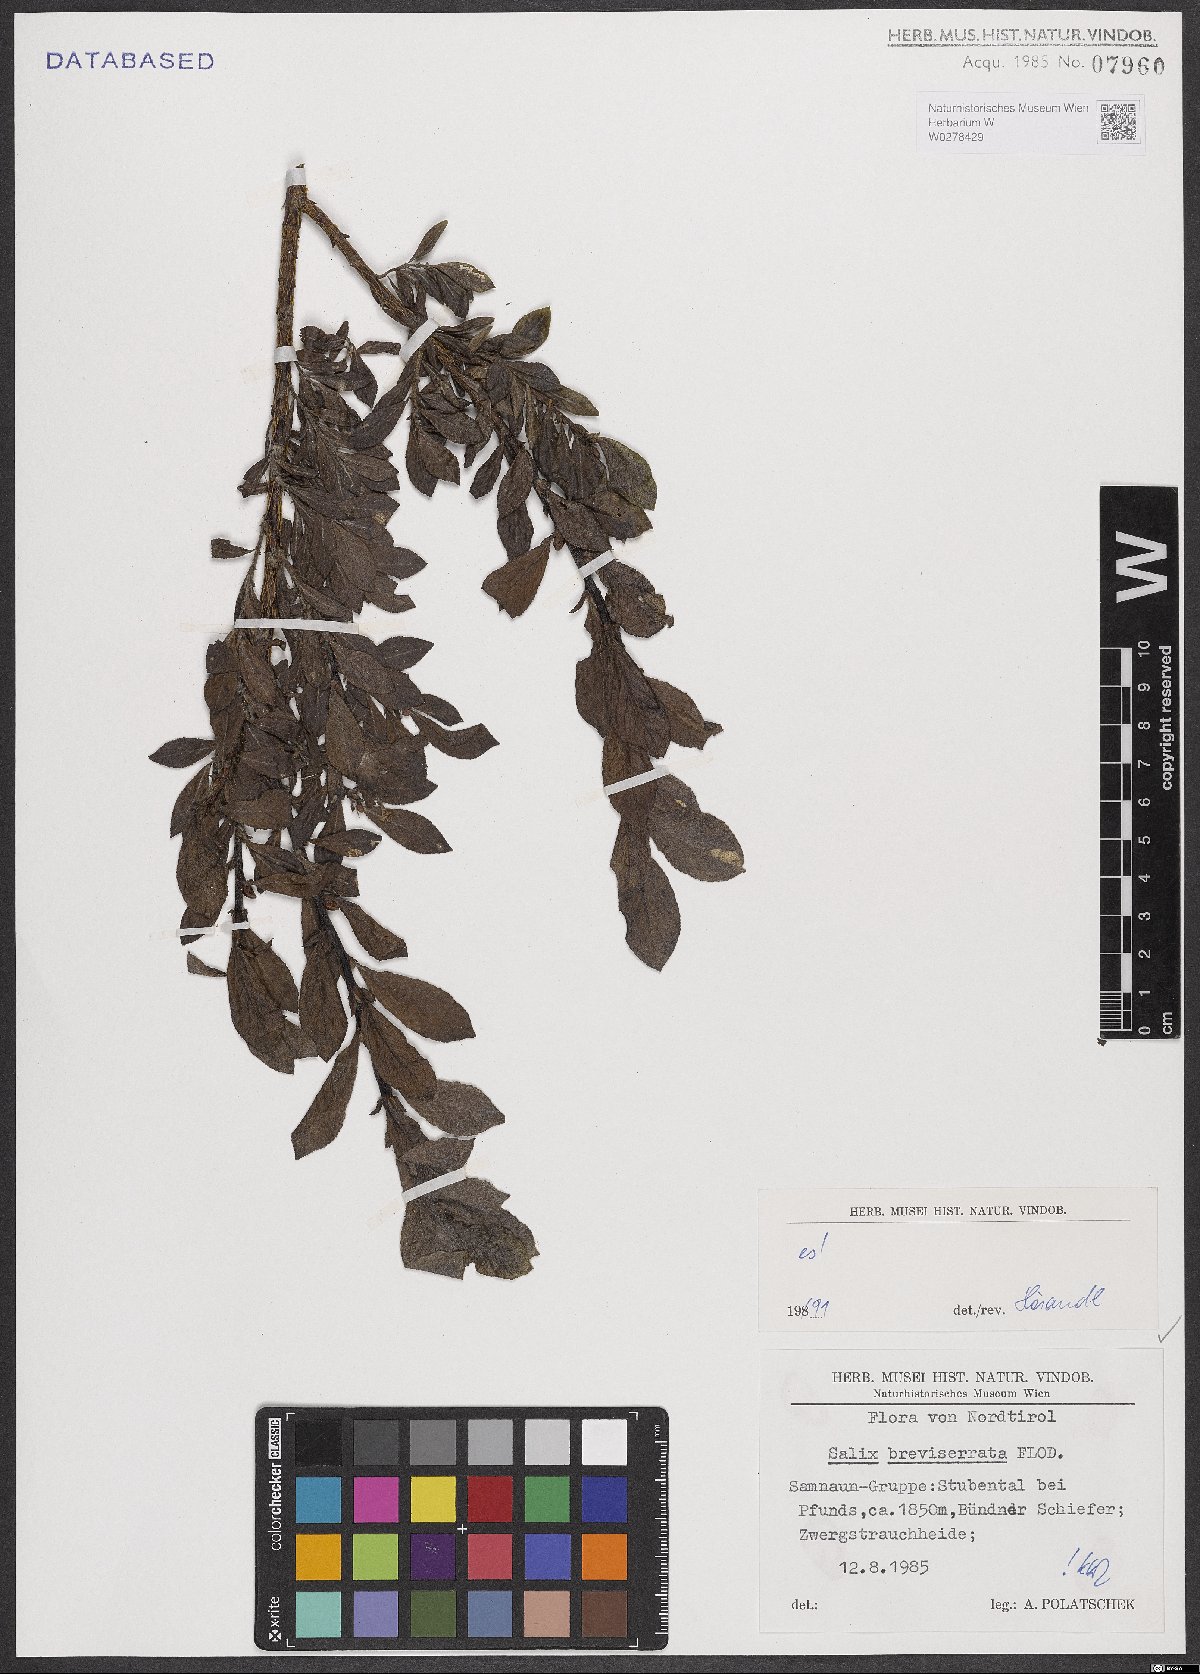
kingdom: Plantae
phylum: Tracheophyta
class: Magnoliopsida
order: Malpighiales
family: Salicaceae
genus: Salix
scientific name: Salix breviserrata
